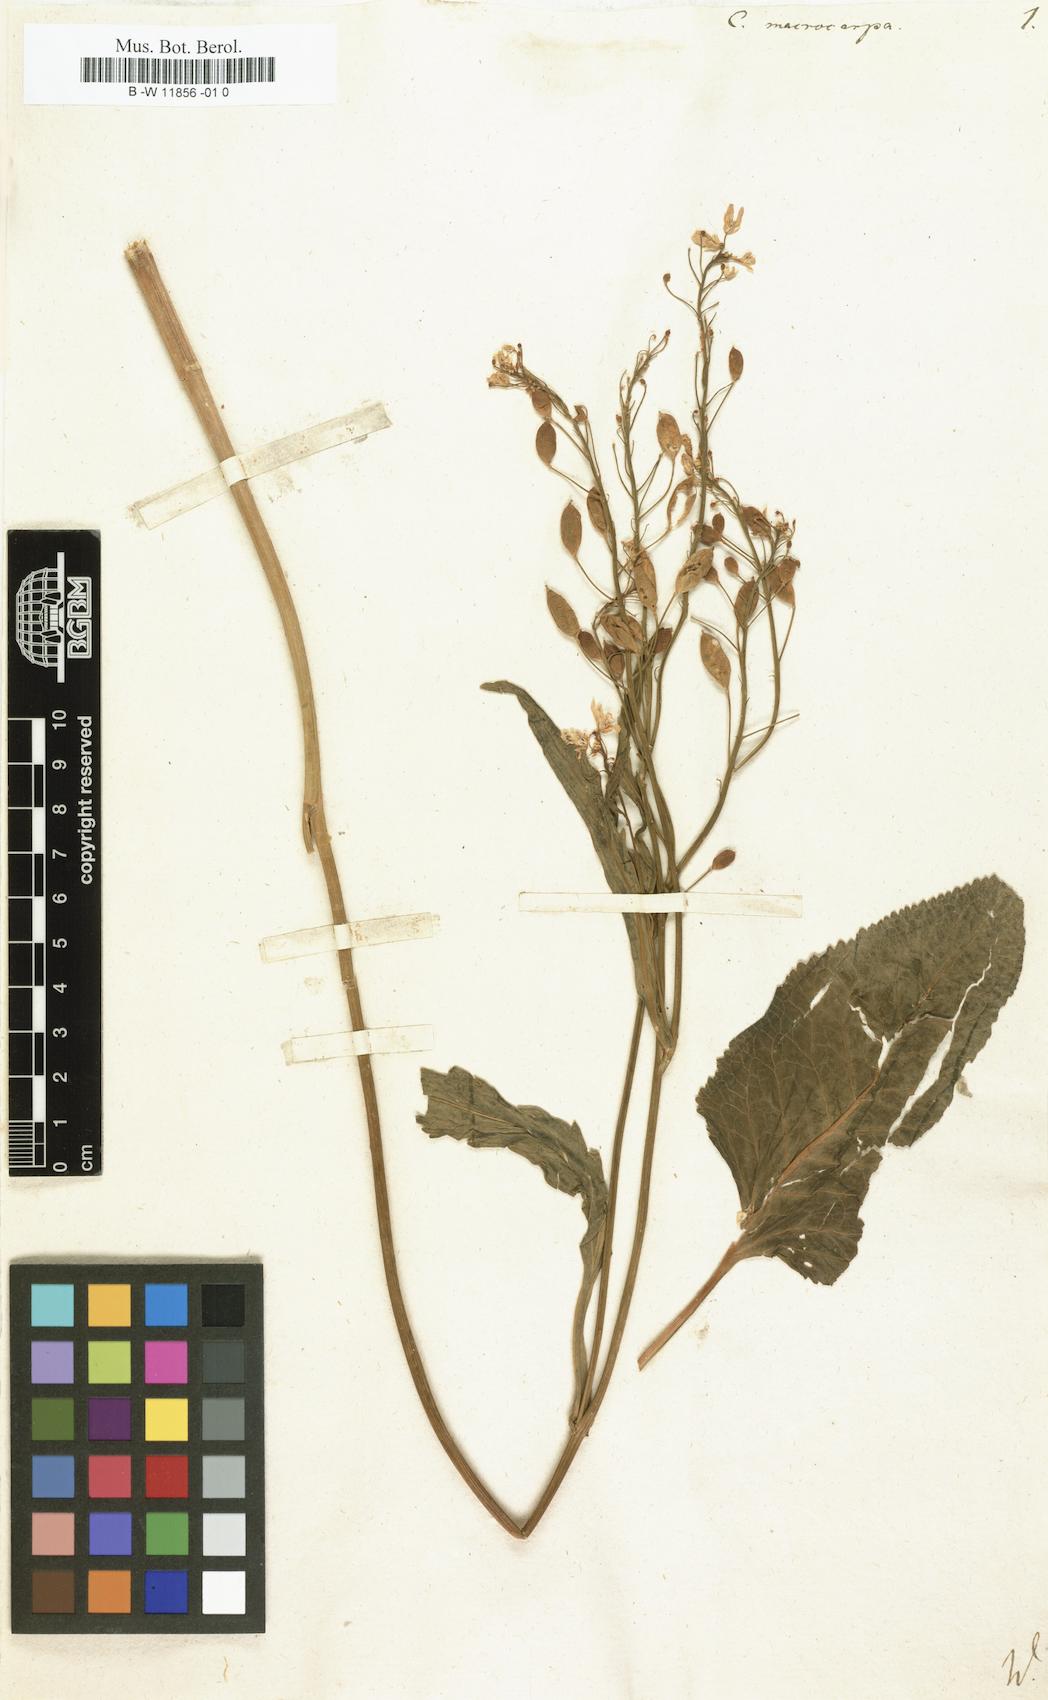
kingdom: Plantae
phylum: Tracheophyta
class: Magnoliopsida
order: Brassicales
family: Brassicaceae
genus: Armoracia
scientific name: Armoracia macrocarpa
